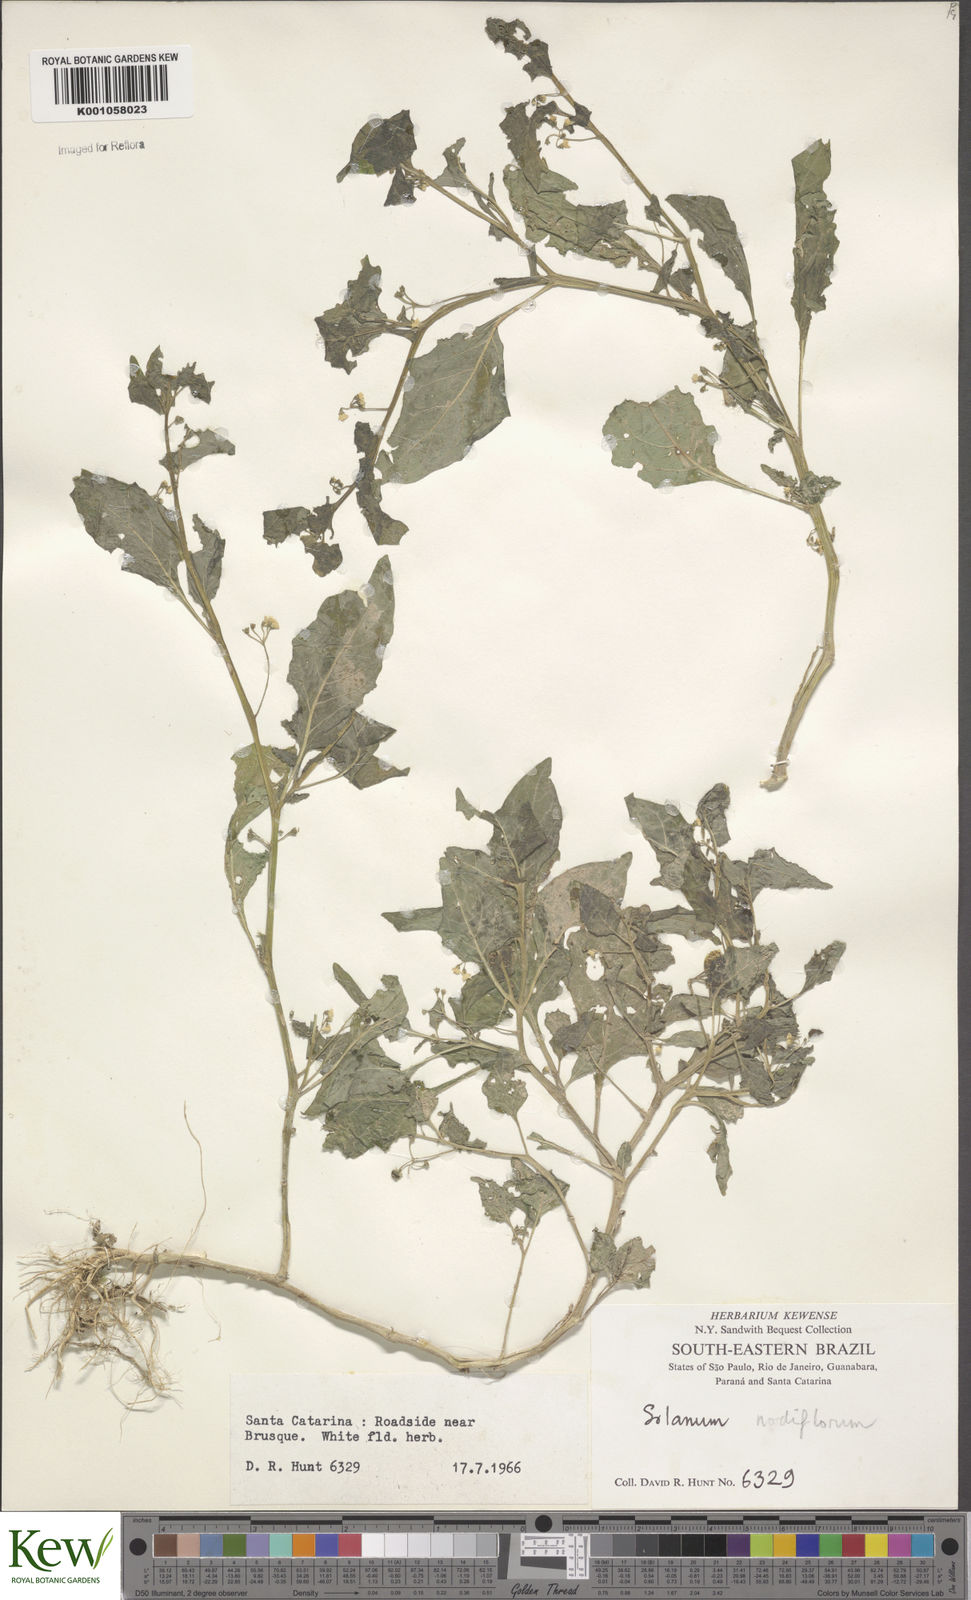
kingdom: Plantae
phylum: Tracheophyta
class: Magnoliopsida
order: Solanales
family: Solanaceae
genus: Solanum
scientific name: Solanum americanum
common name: American black nightshade
